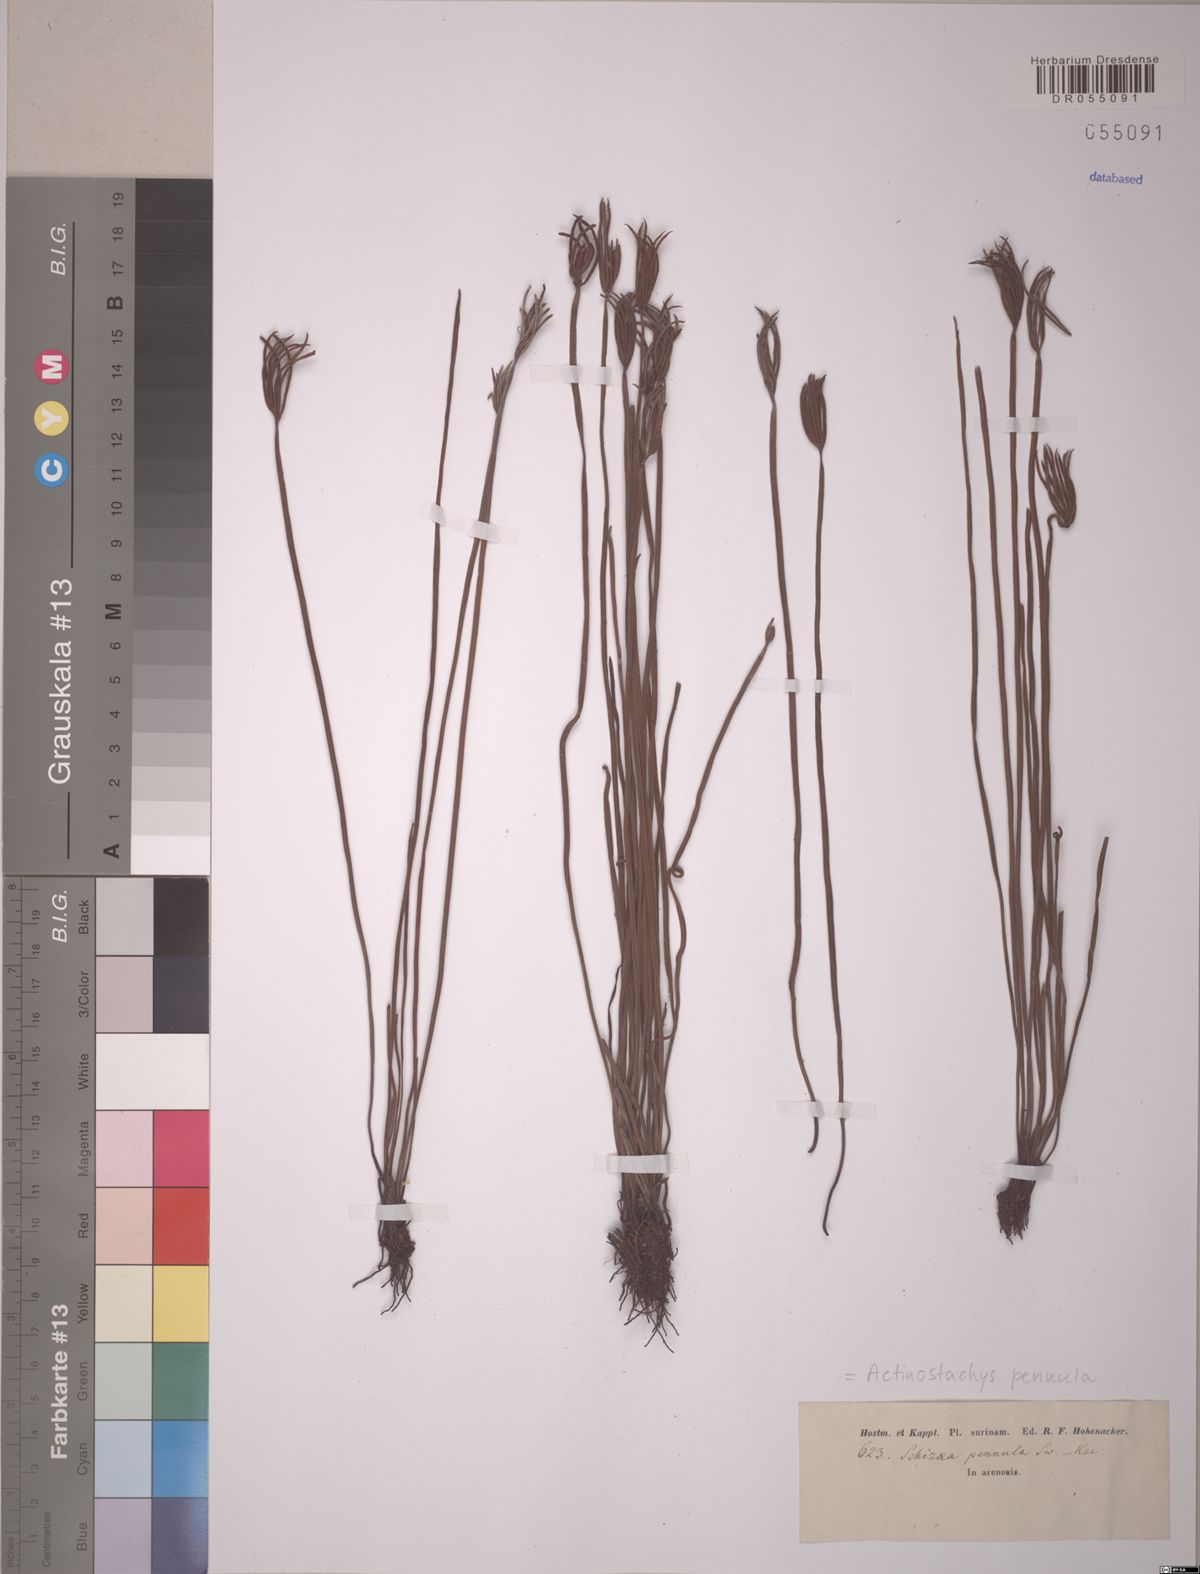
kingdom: Plantae
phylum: Tracheophyta
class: Polypodiopsida
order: Schizaeales
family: Schizaeaceae
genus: Actinostachys
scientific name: Actinostachys pennula
